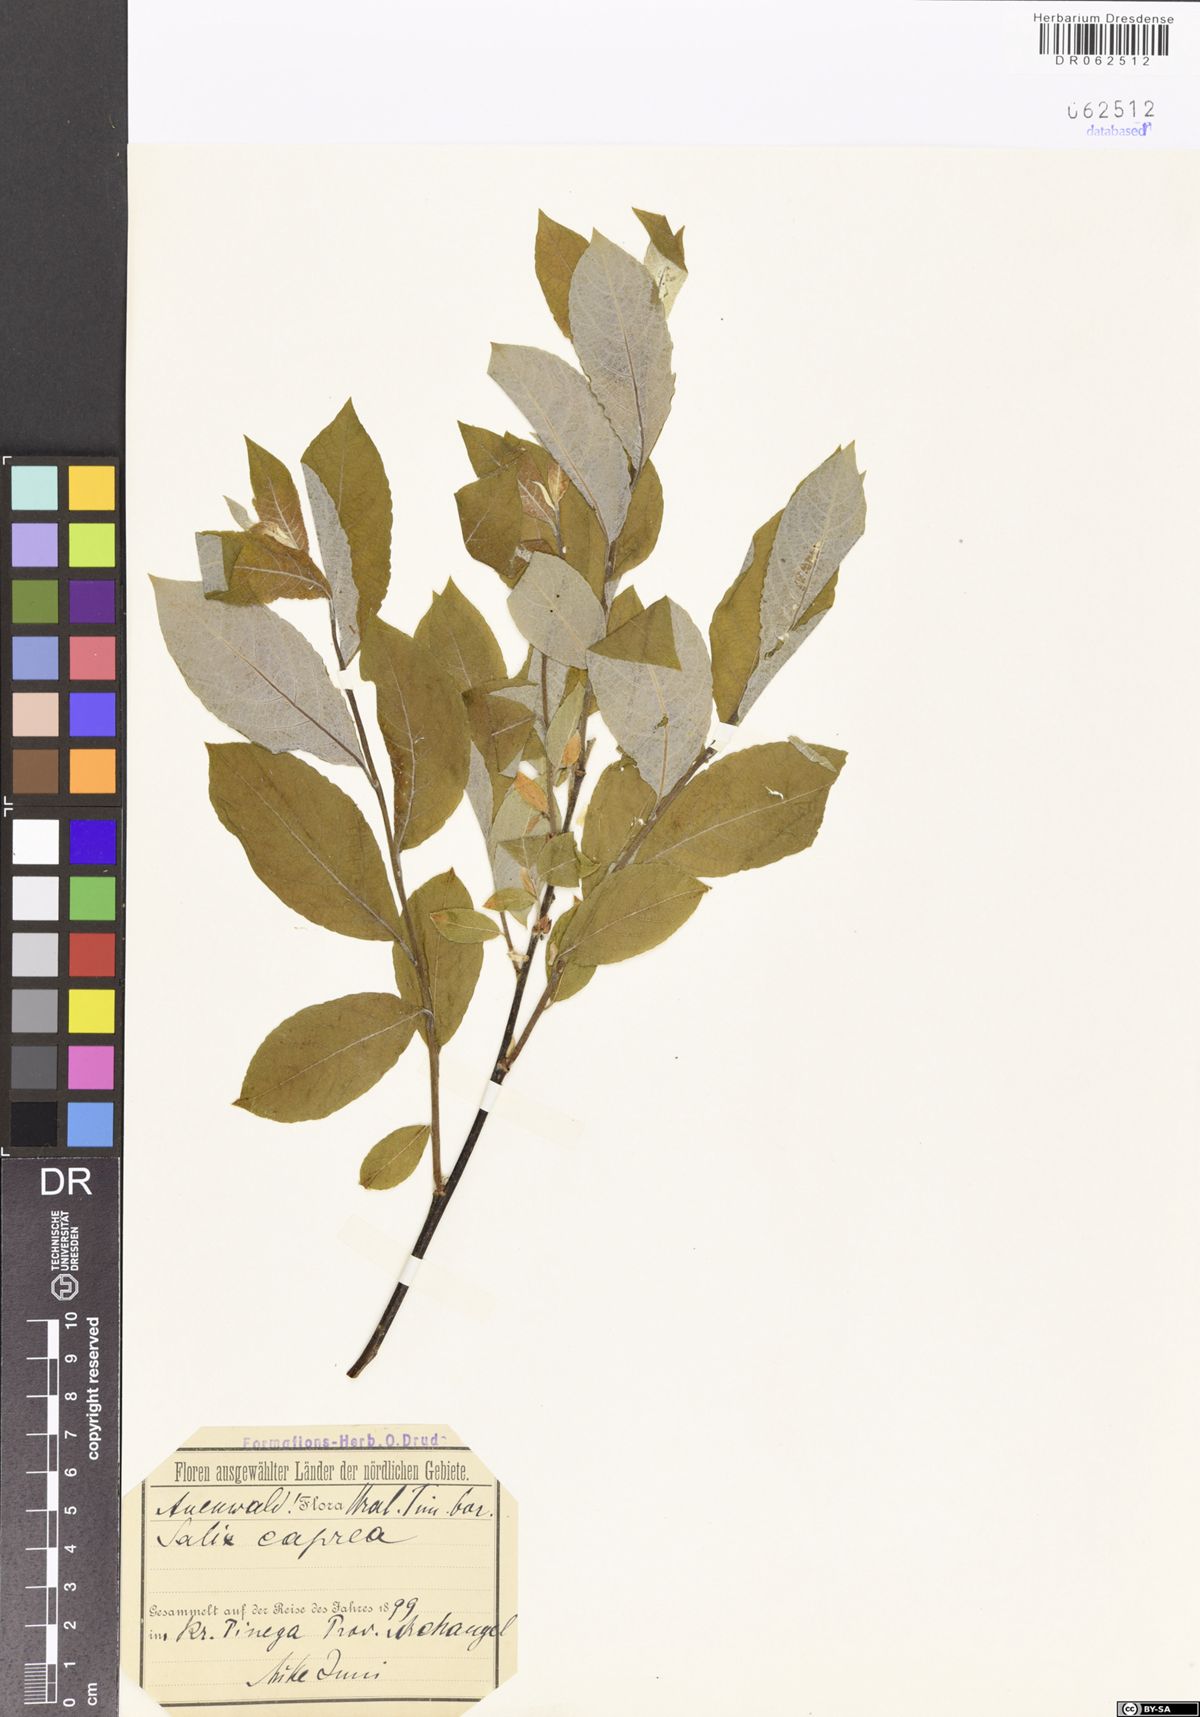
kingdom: Plantae
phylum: Tracheophyta
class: Magnoliopsida
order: Malpighiales
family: Salicaceae
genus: Salix
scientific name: Salix caprea
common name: Goat willow
